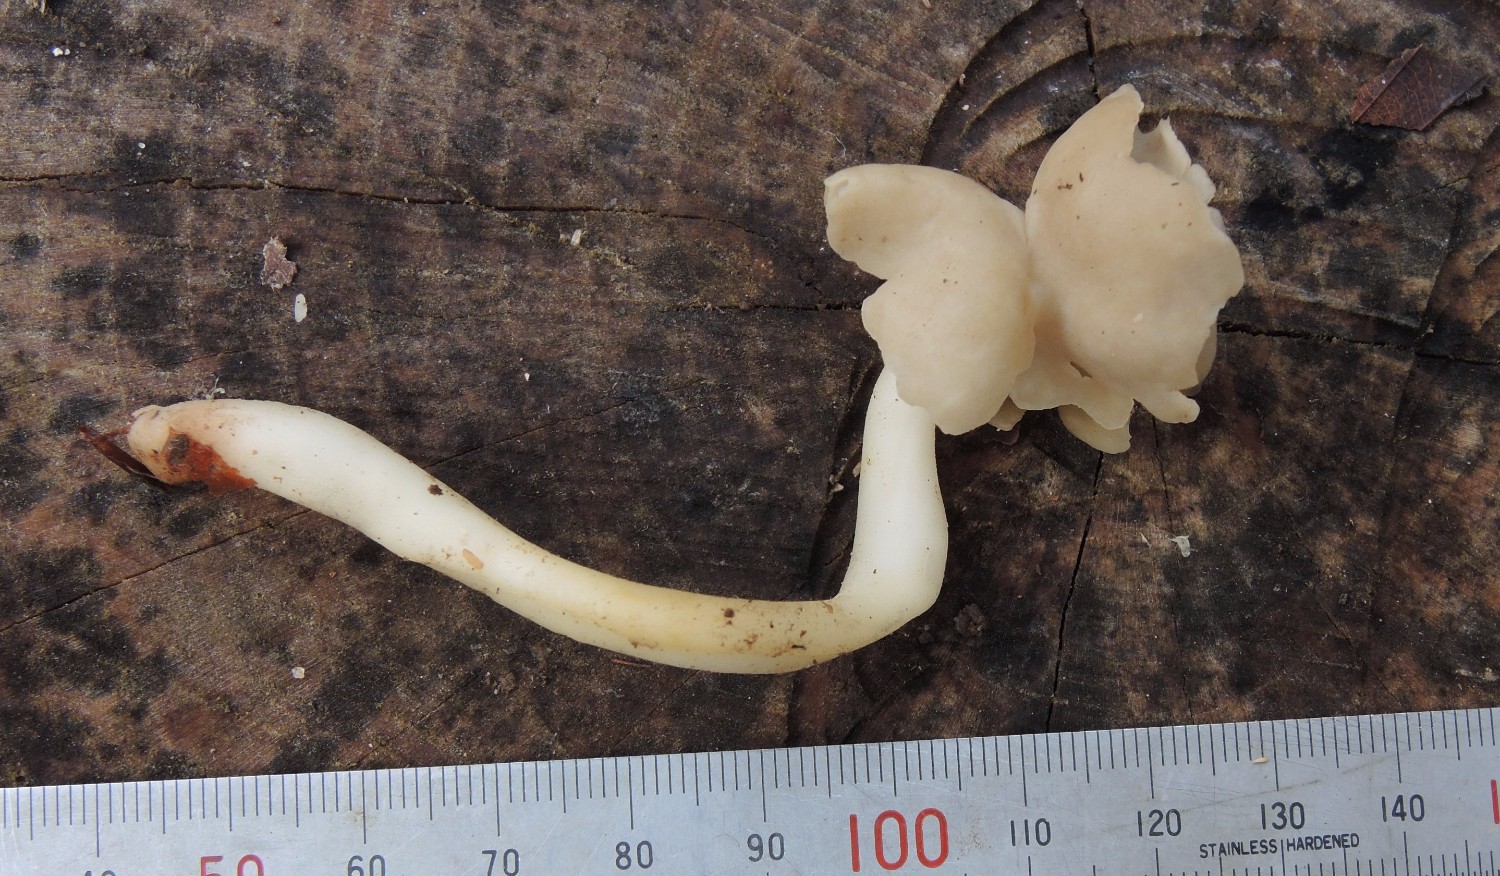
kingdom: Fungi
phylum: Ascomycota
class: Pezizomycetes
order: Pezizales
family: Helvellaceae
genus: Helvella
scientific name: Helvella elastica
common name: elastik-foldhat
